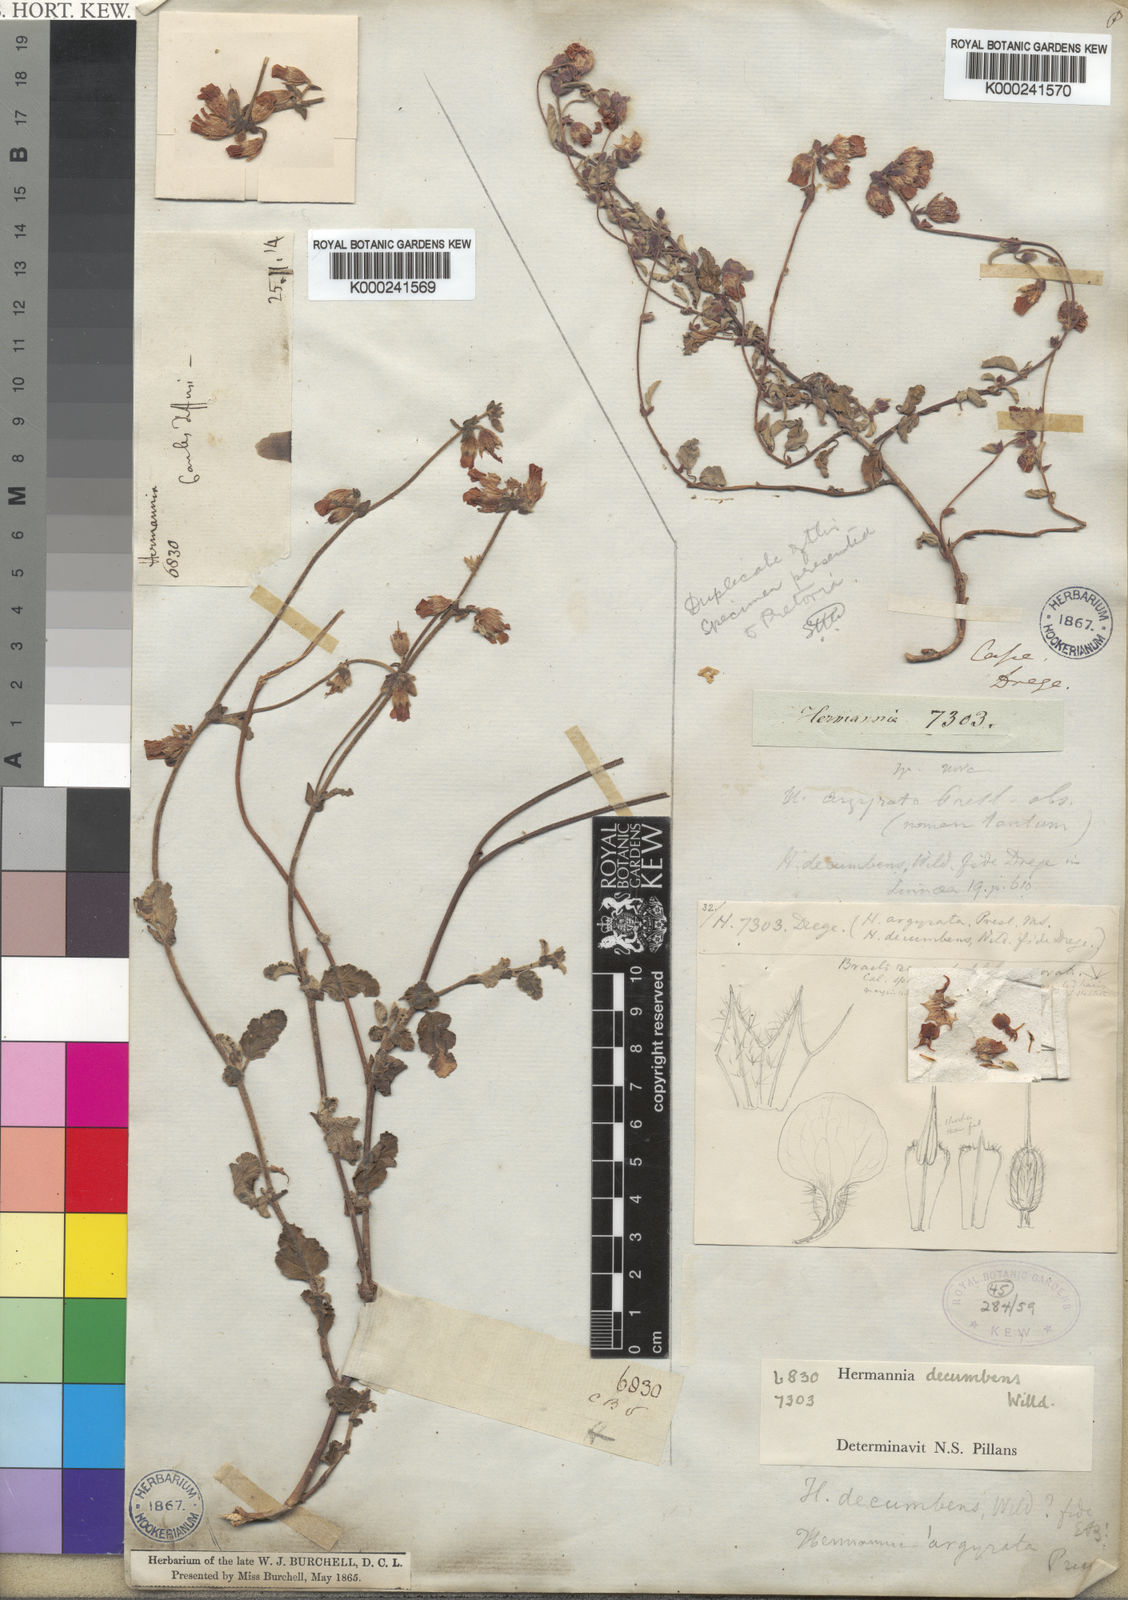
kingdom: Plantae
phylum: Tracheophyta
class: Magnoliopsida
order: Malvales
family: Malvaceae
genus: Hermannia
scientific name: Hermannia decumbens
